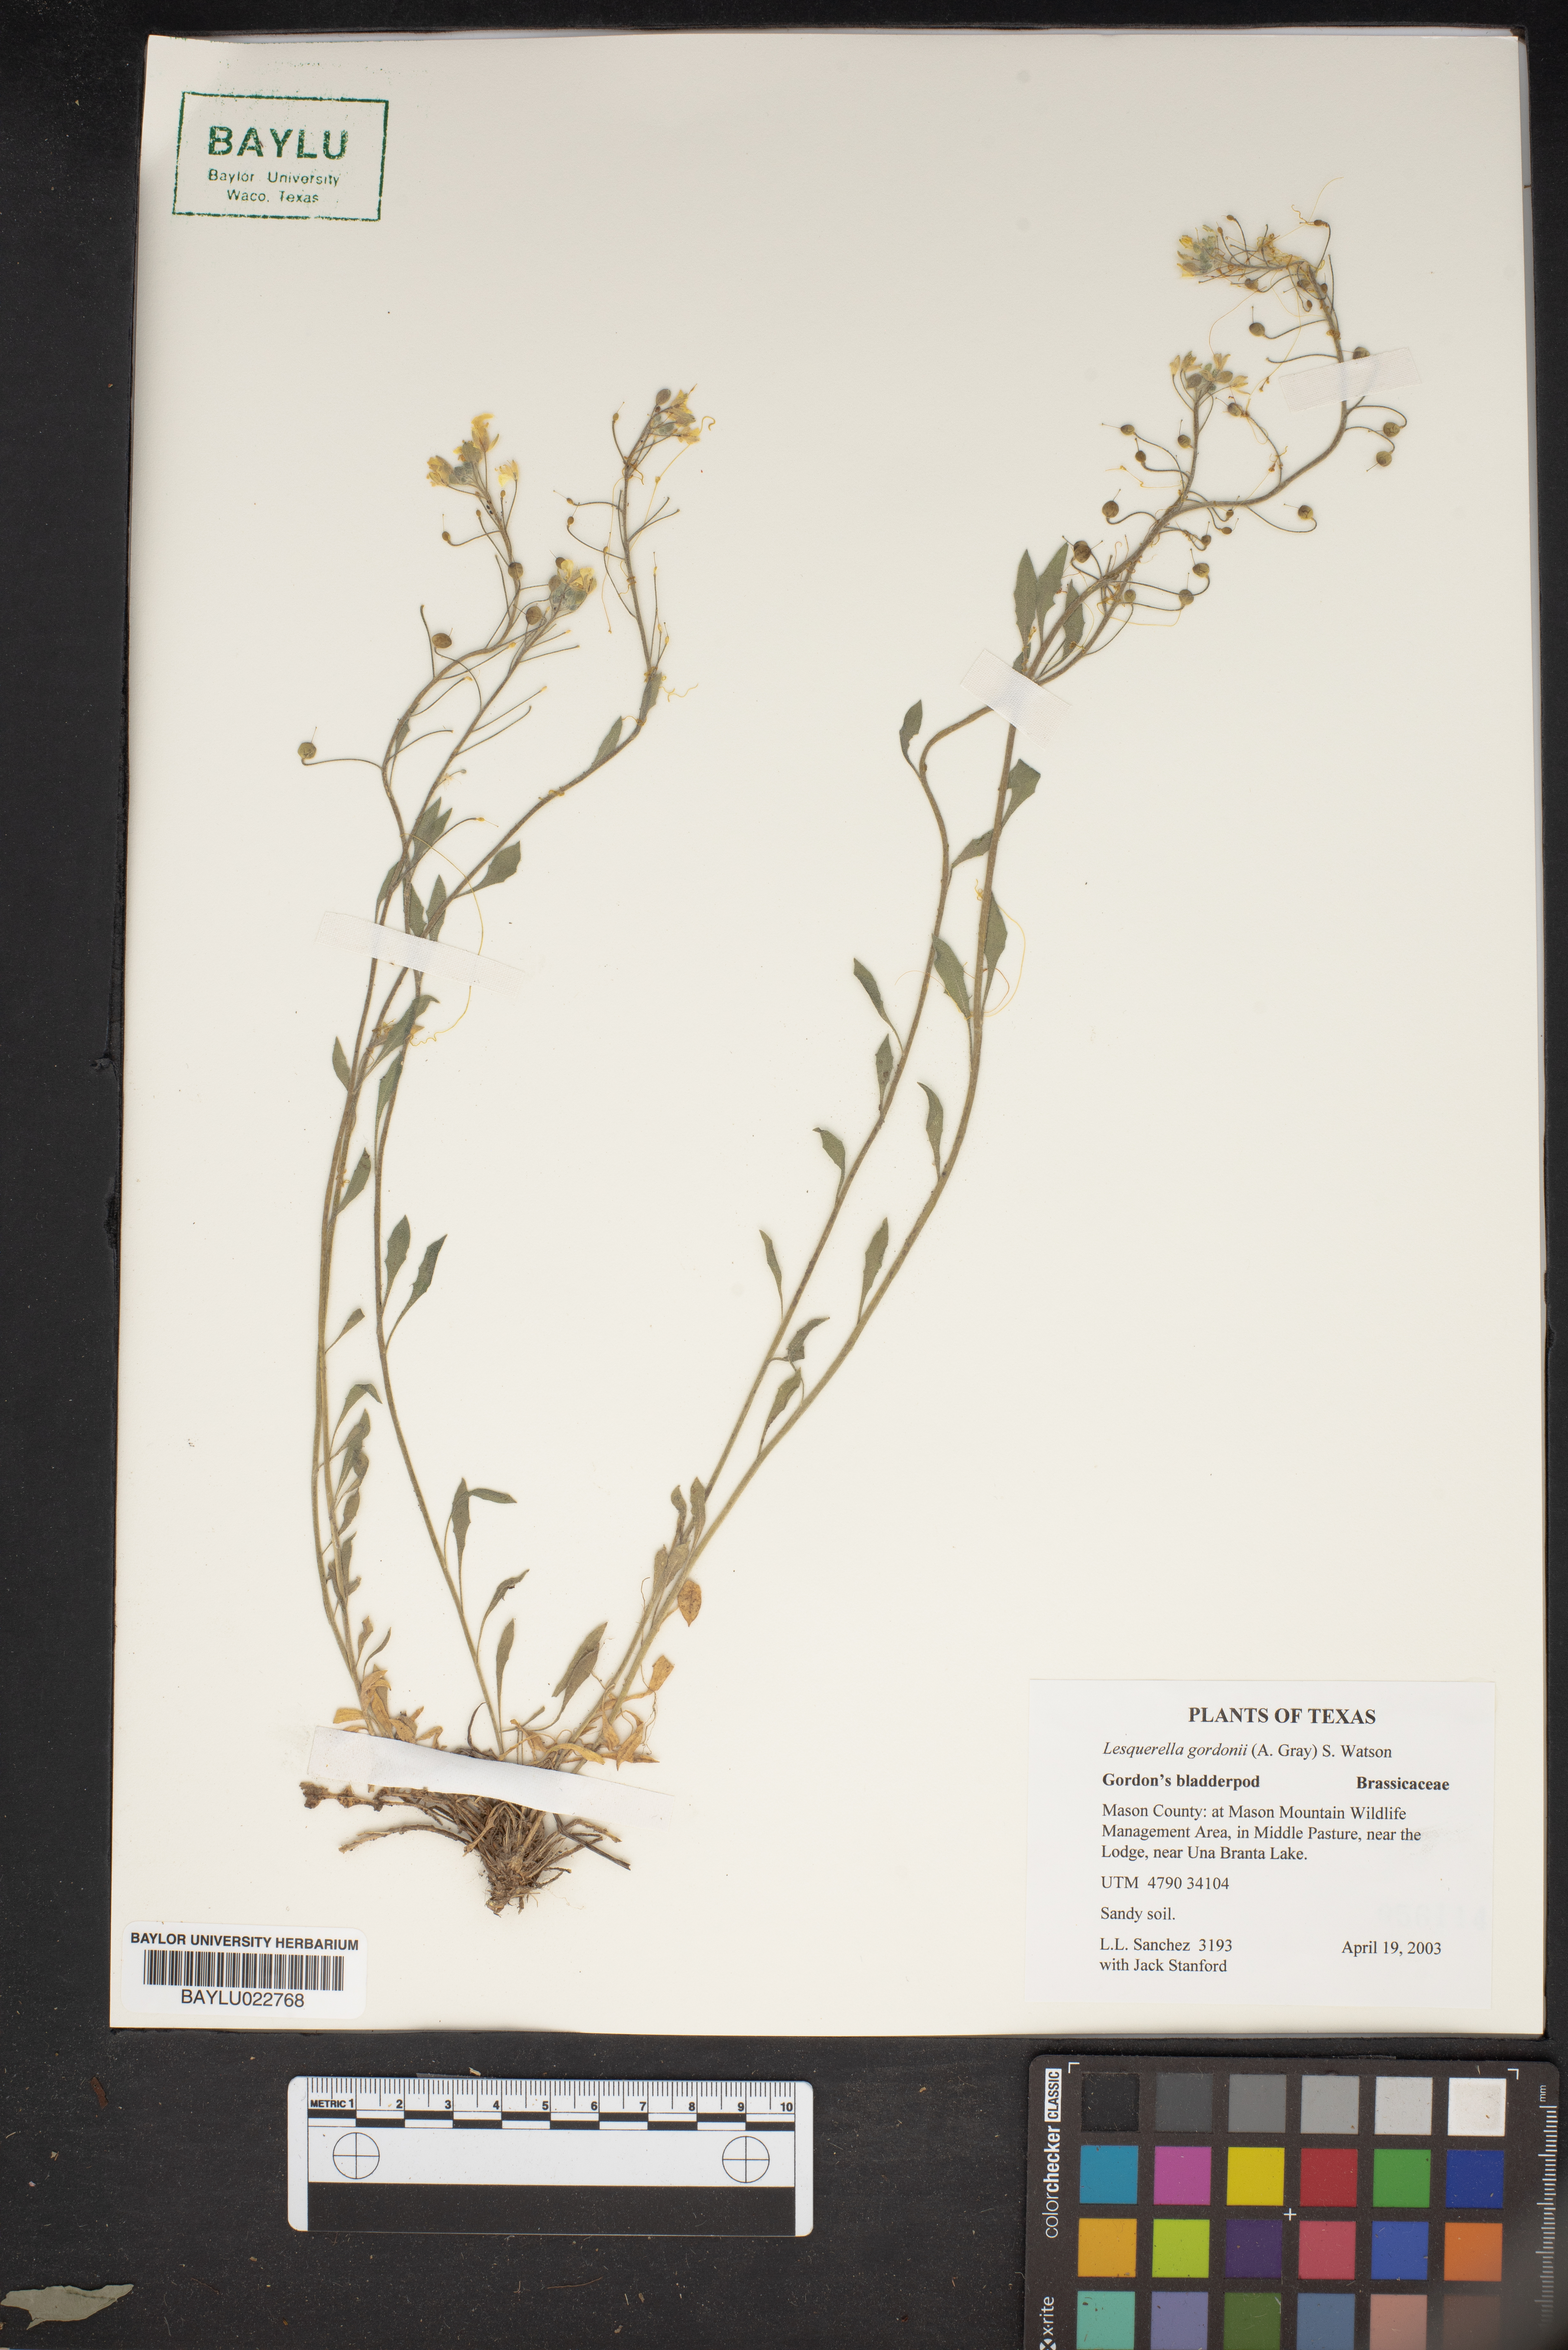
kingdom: Plantae
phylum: Tracheophyta
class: Magnoliopsida
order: Brassicales
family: Brassicaceae
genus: Physaria
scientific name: Physaria gordonii
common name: Gordon's bladderpod
